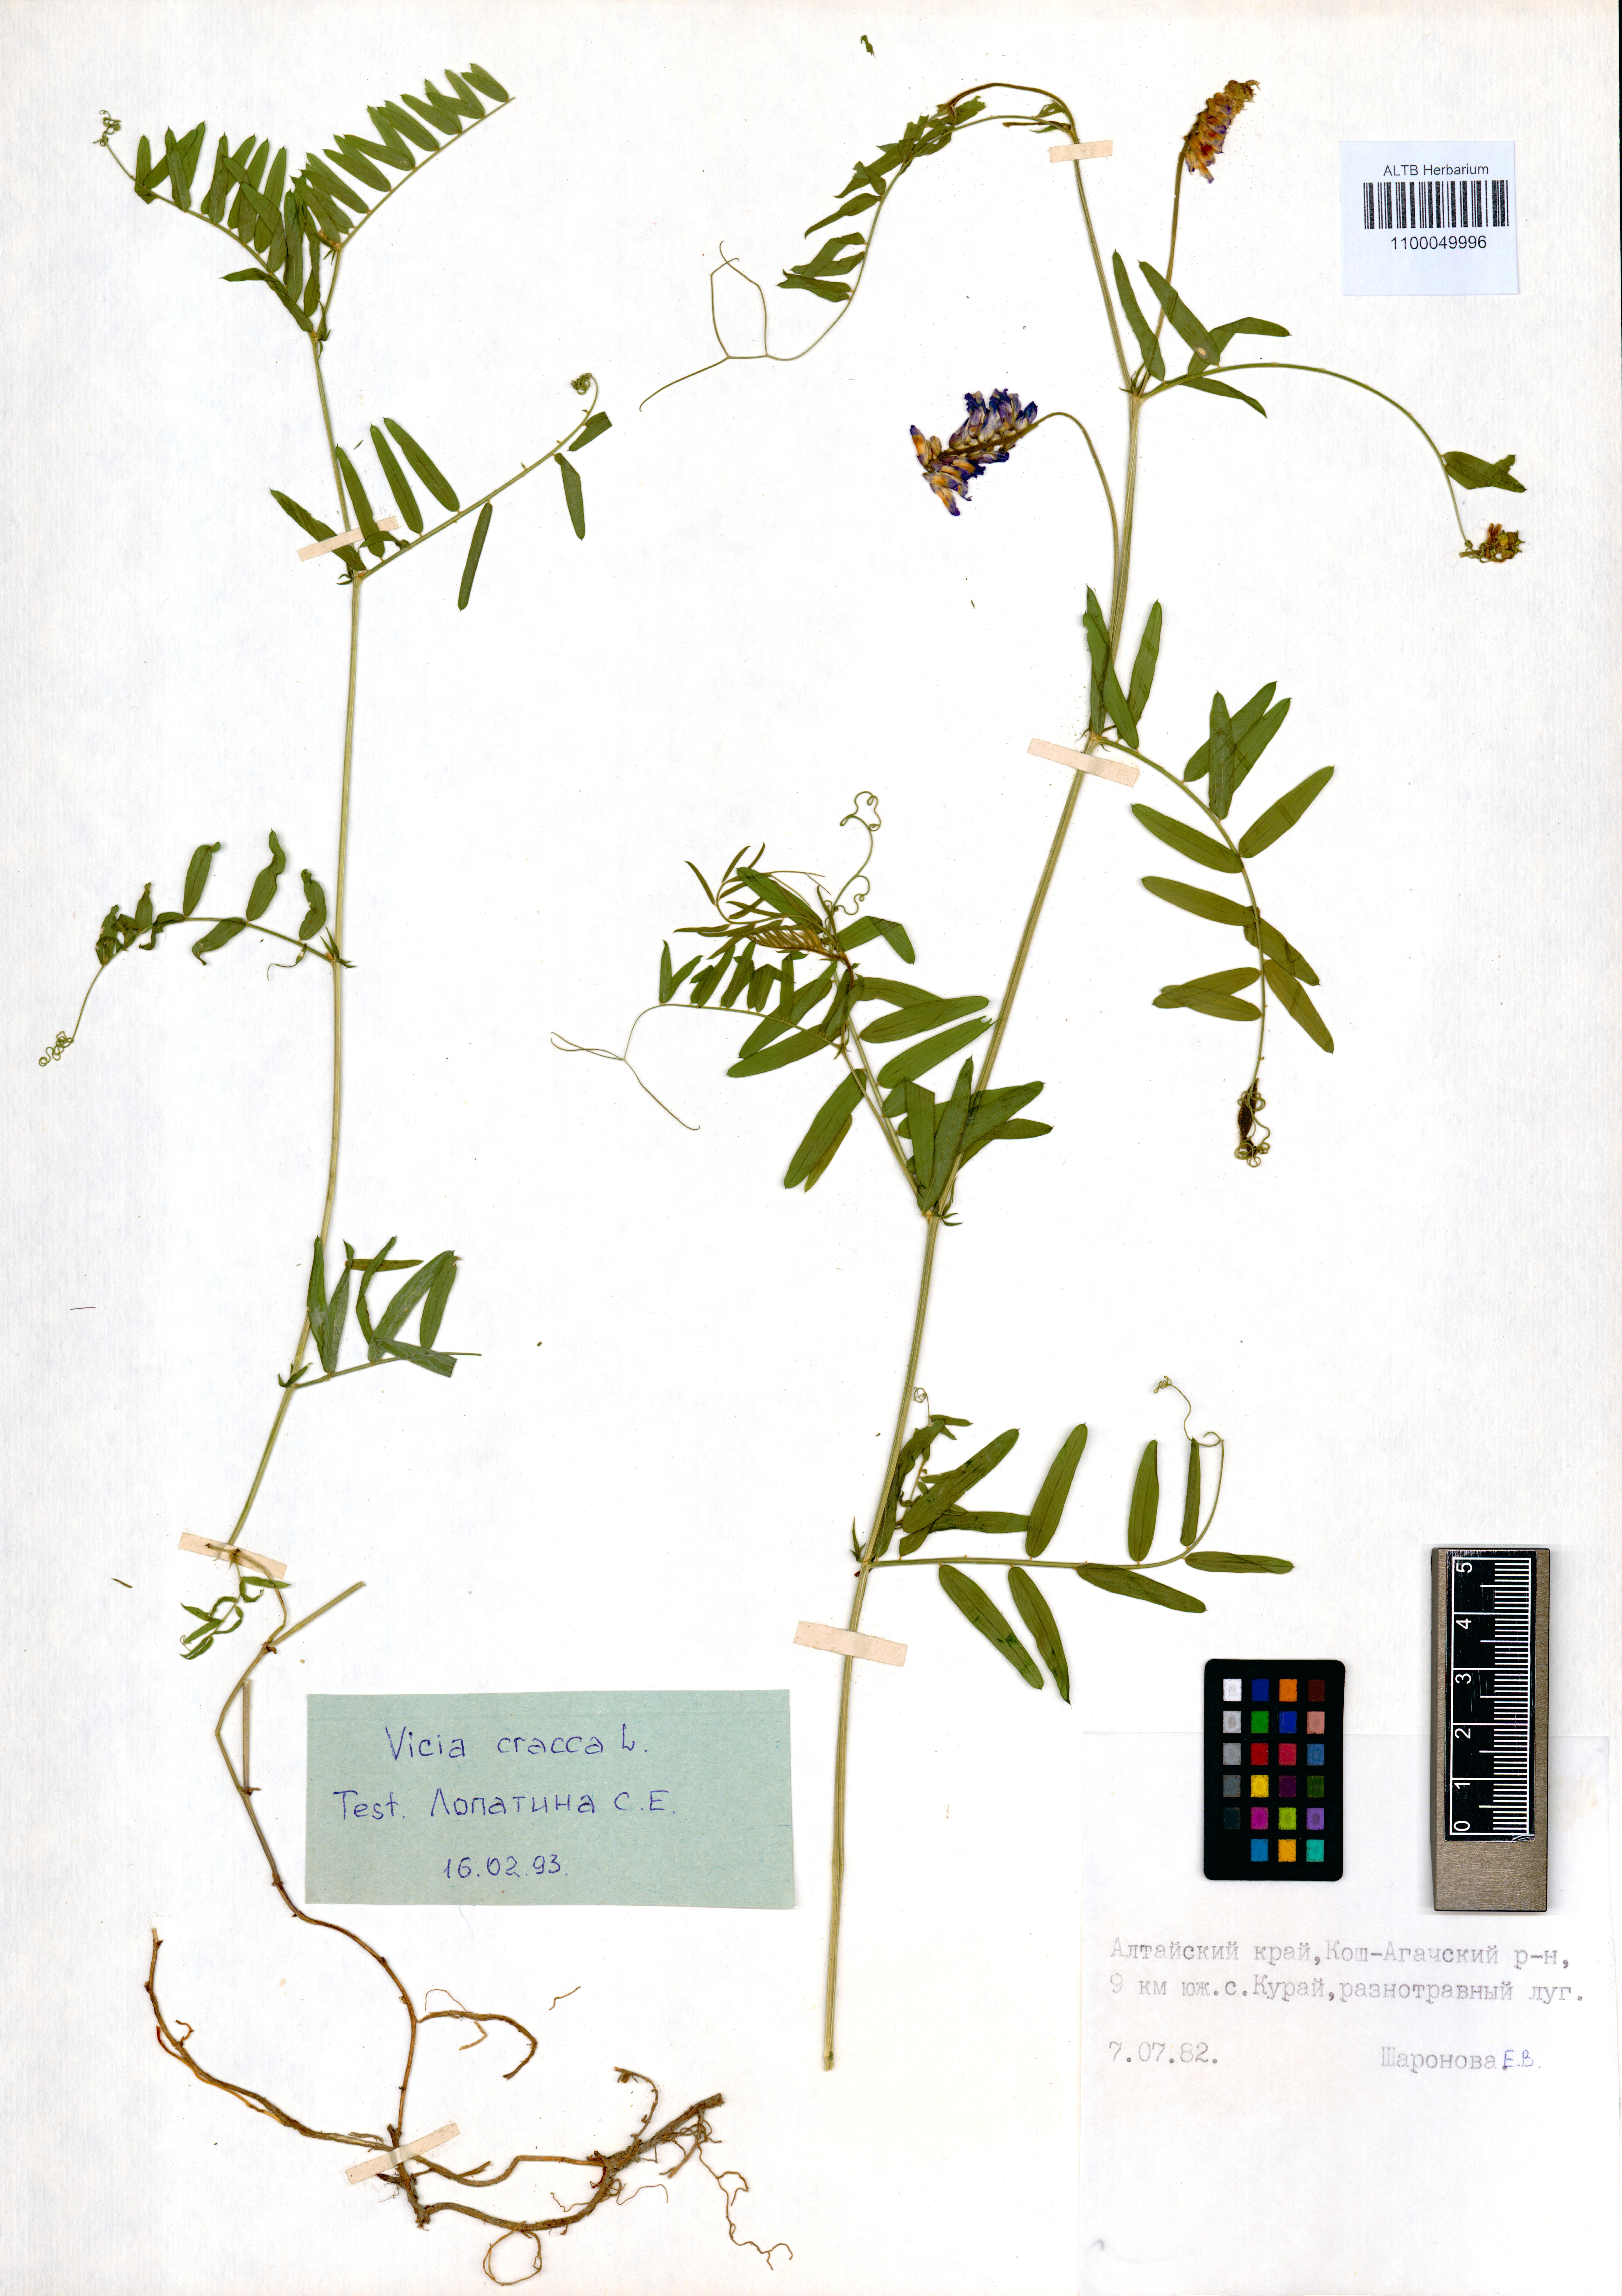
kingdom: Plantae
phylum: Tracheophyta
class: Magnoliopsida
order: Fabales
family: Fabaceae
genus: Vicia
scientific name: Vicia cracca
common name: Bird vetch
